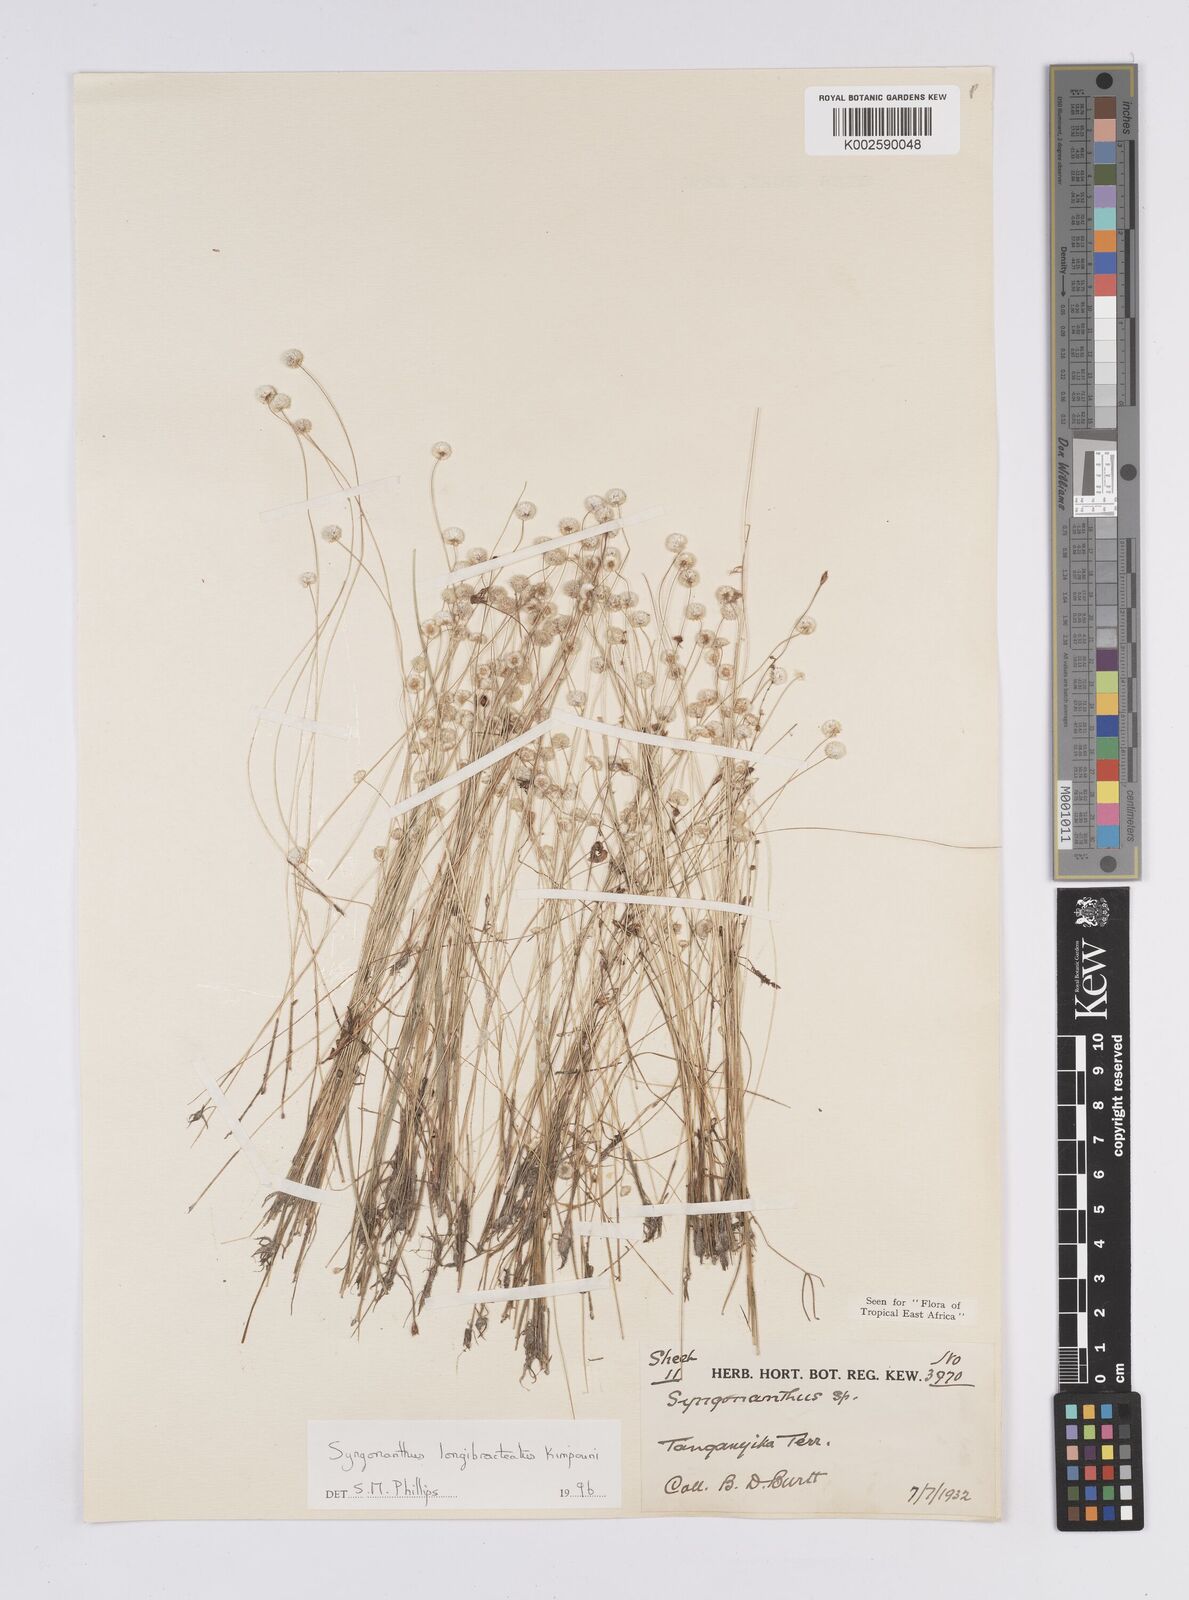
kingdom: Plantae
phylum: Tracheophyta
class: Liliopsida
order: Poales
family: Eriocaulaceae
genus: Syngonanthus
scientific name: Syngonanthus longibracteatus
